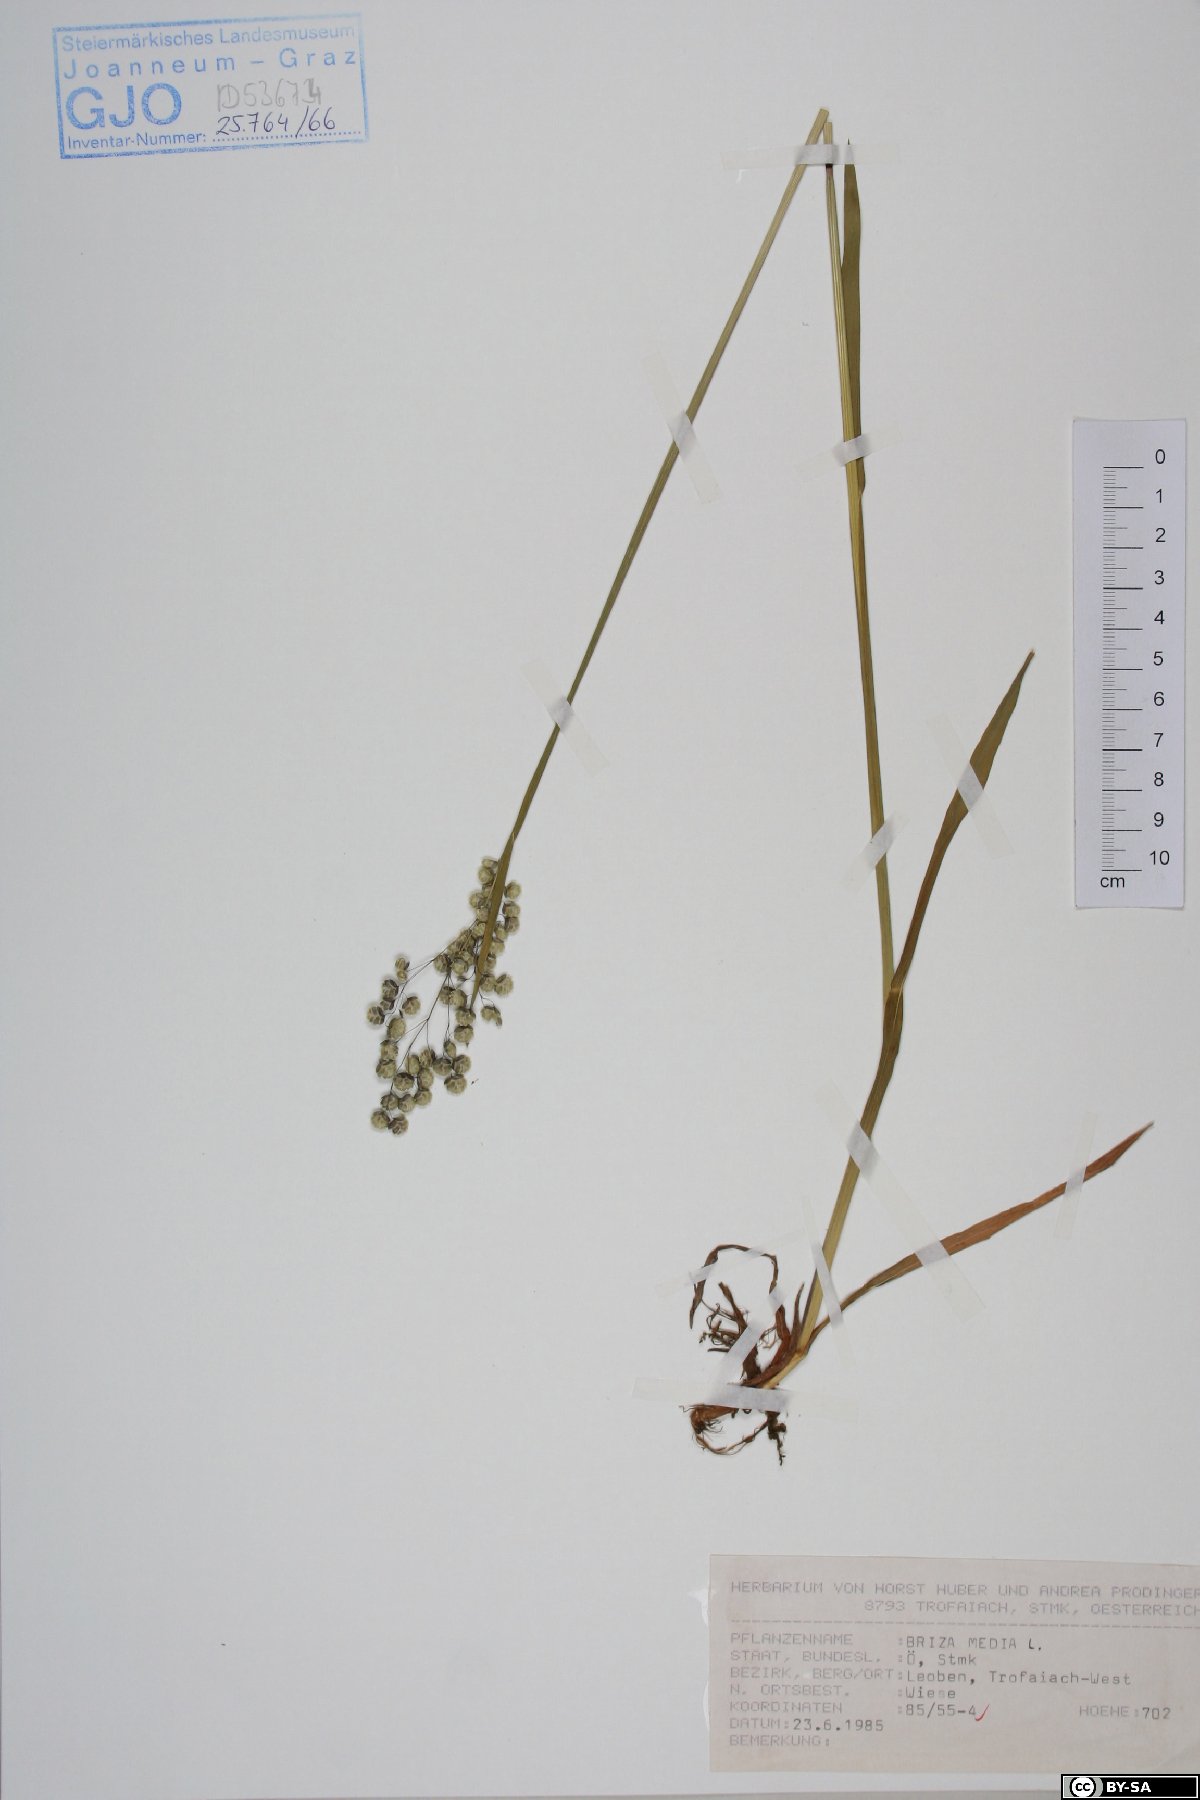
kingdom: Plantae
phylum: Tracheophyta
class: Liliopsida
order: Poales
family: Poaceae
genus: Briza
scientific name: Briza media
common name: Quaking grass
